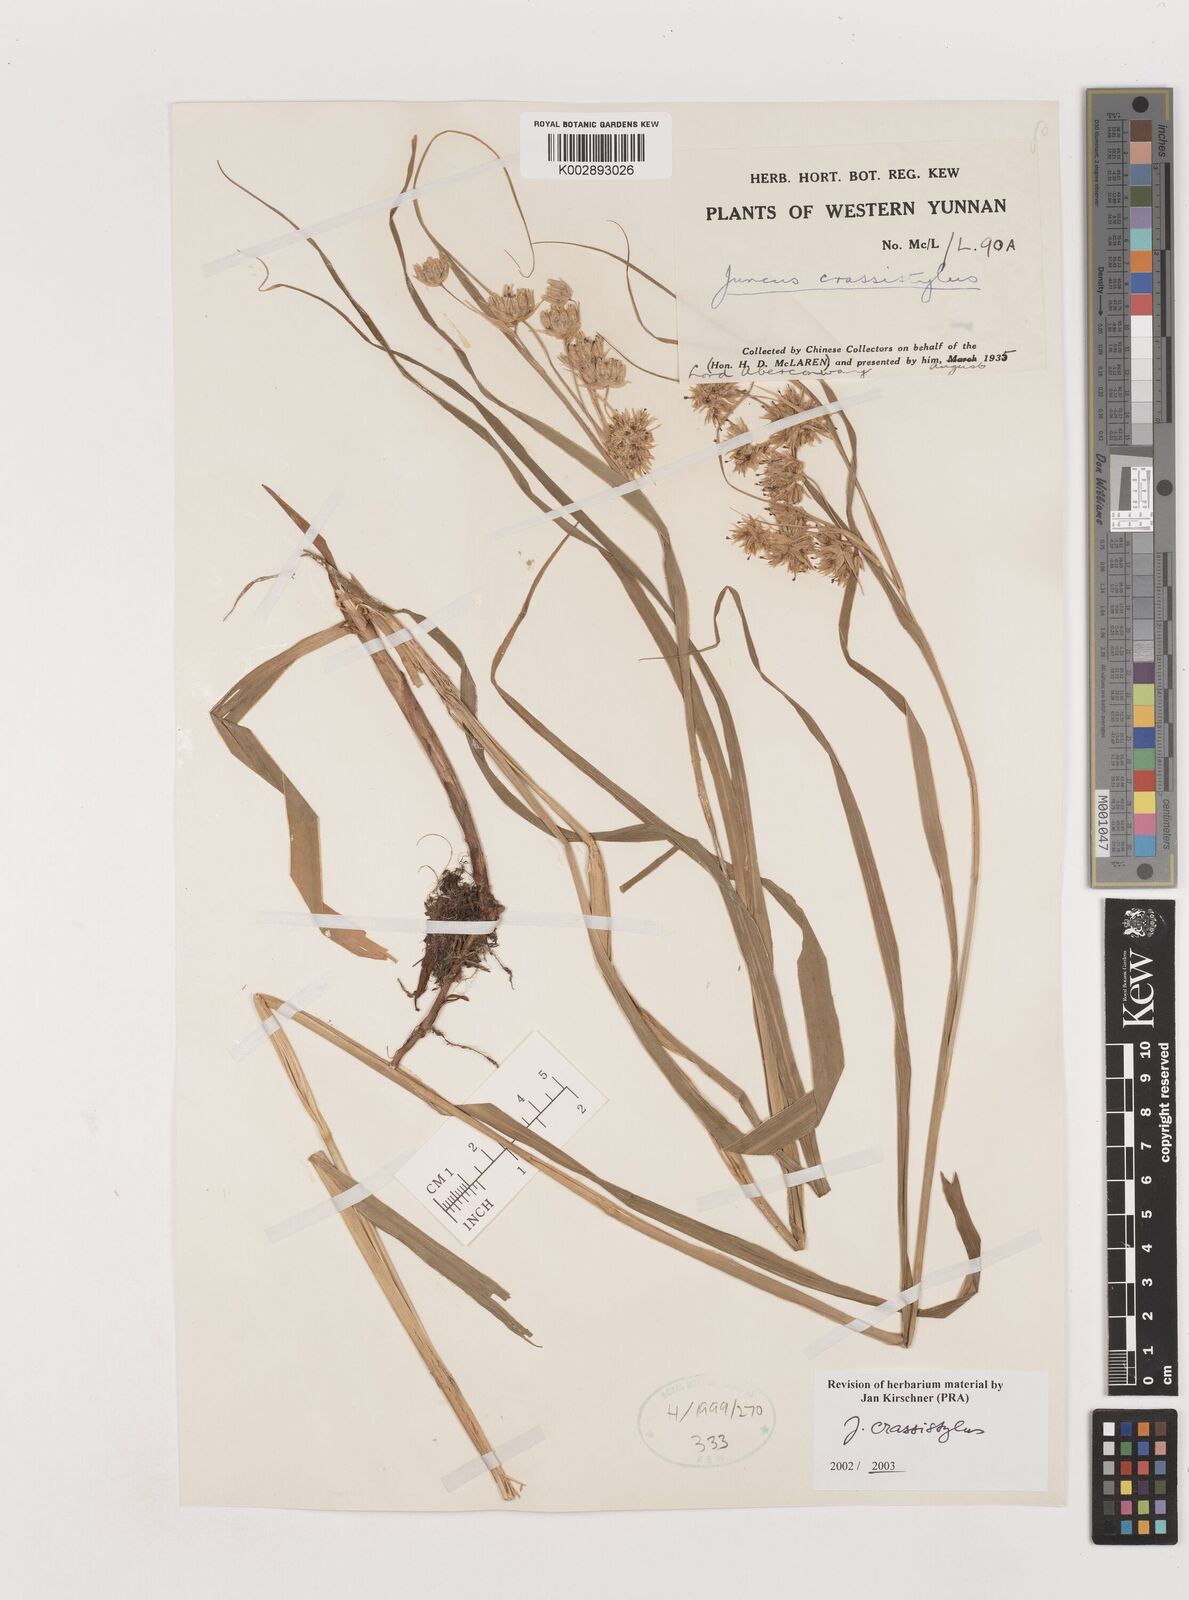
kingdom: Plantae
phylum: Tracheophyta
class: Liliopsida
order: Poales
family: Juncaceae
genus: Juncus
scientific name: Juncus crassistylus
